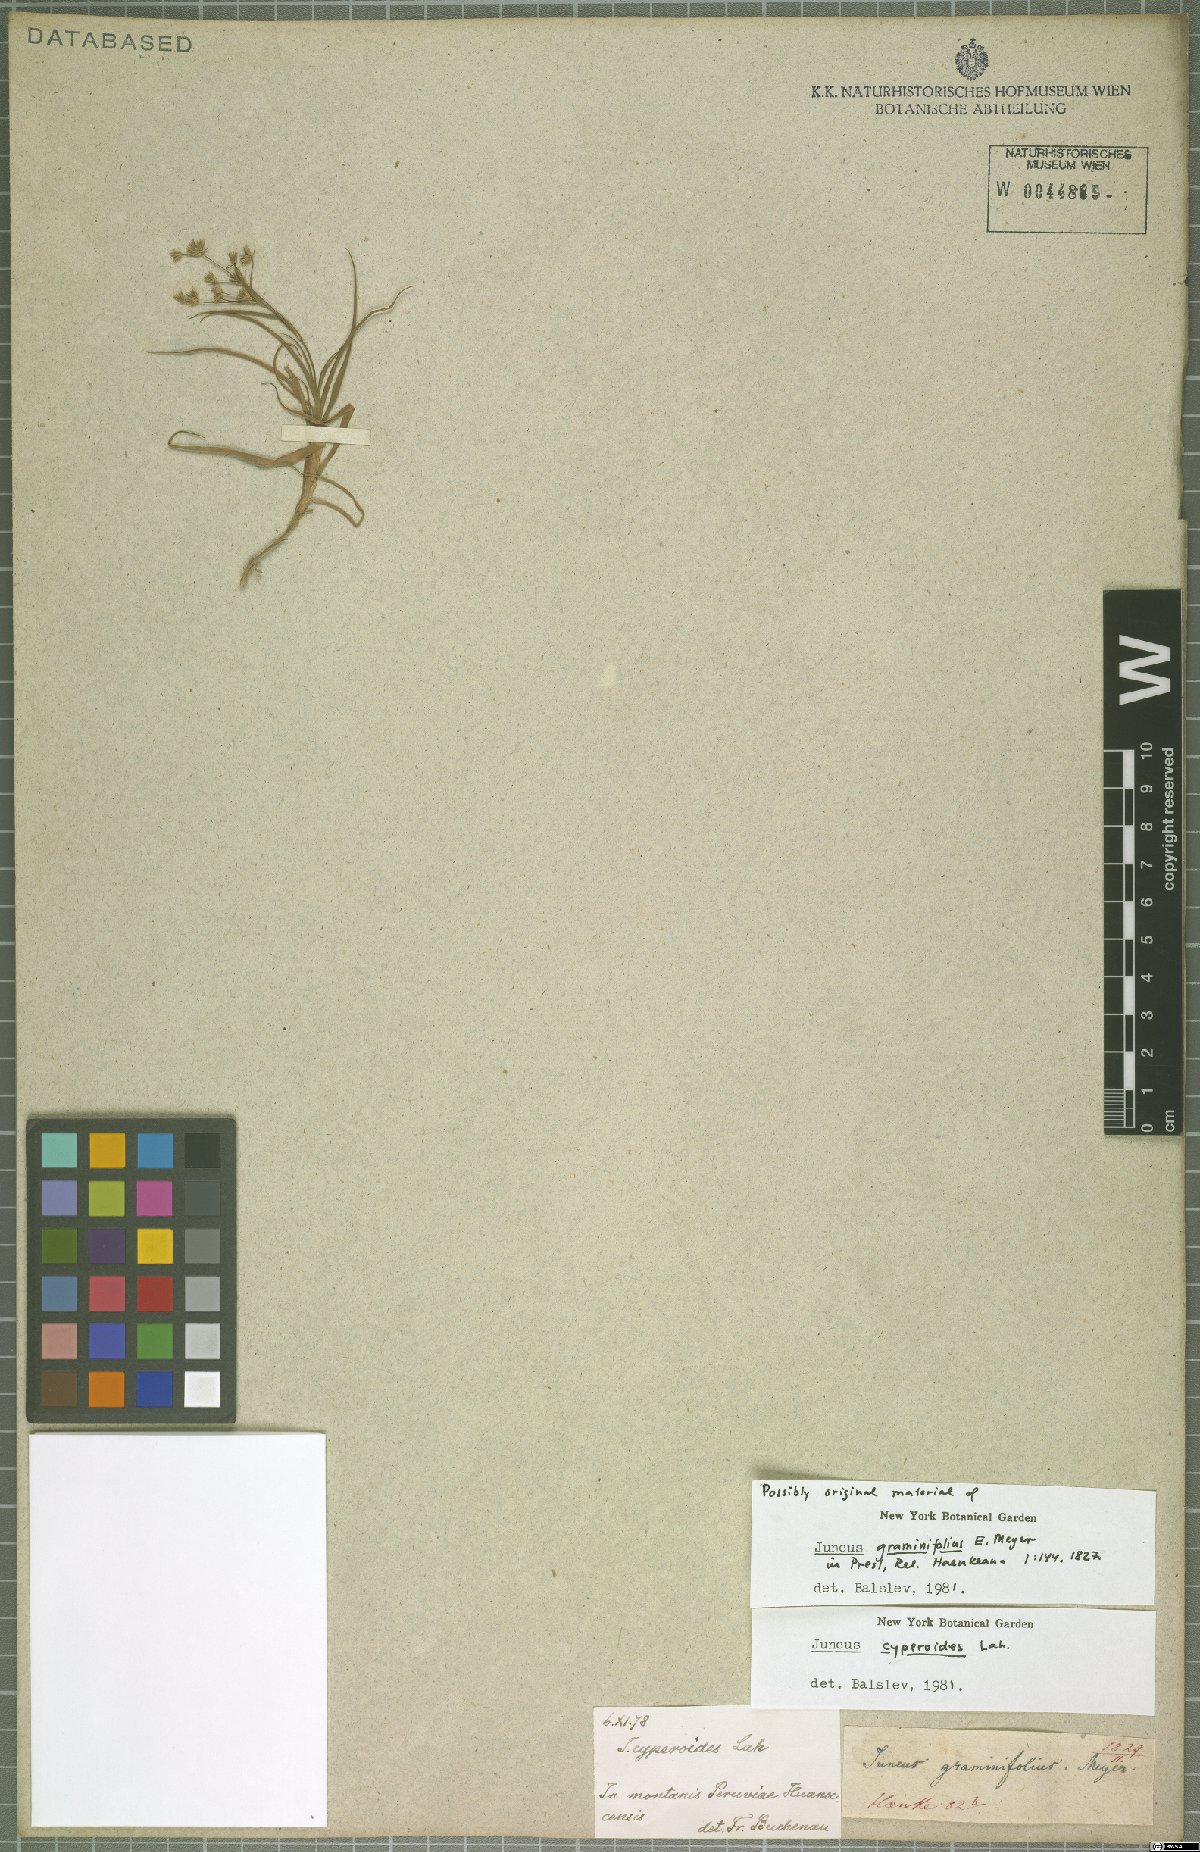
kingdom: Plantae
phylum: Tracheophyta
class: Liliopsida
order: Poales
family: Juncaceae
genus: Juncus
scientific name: Juncus cyperoides
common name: Forbestown rush
